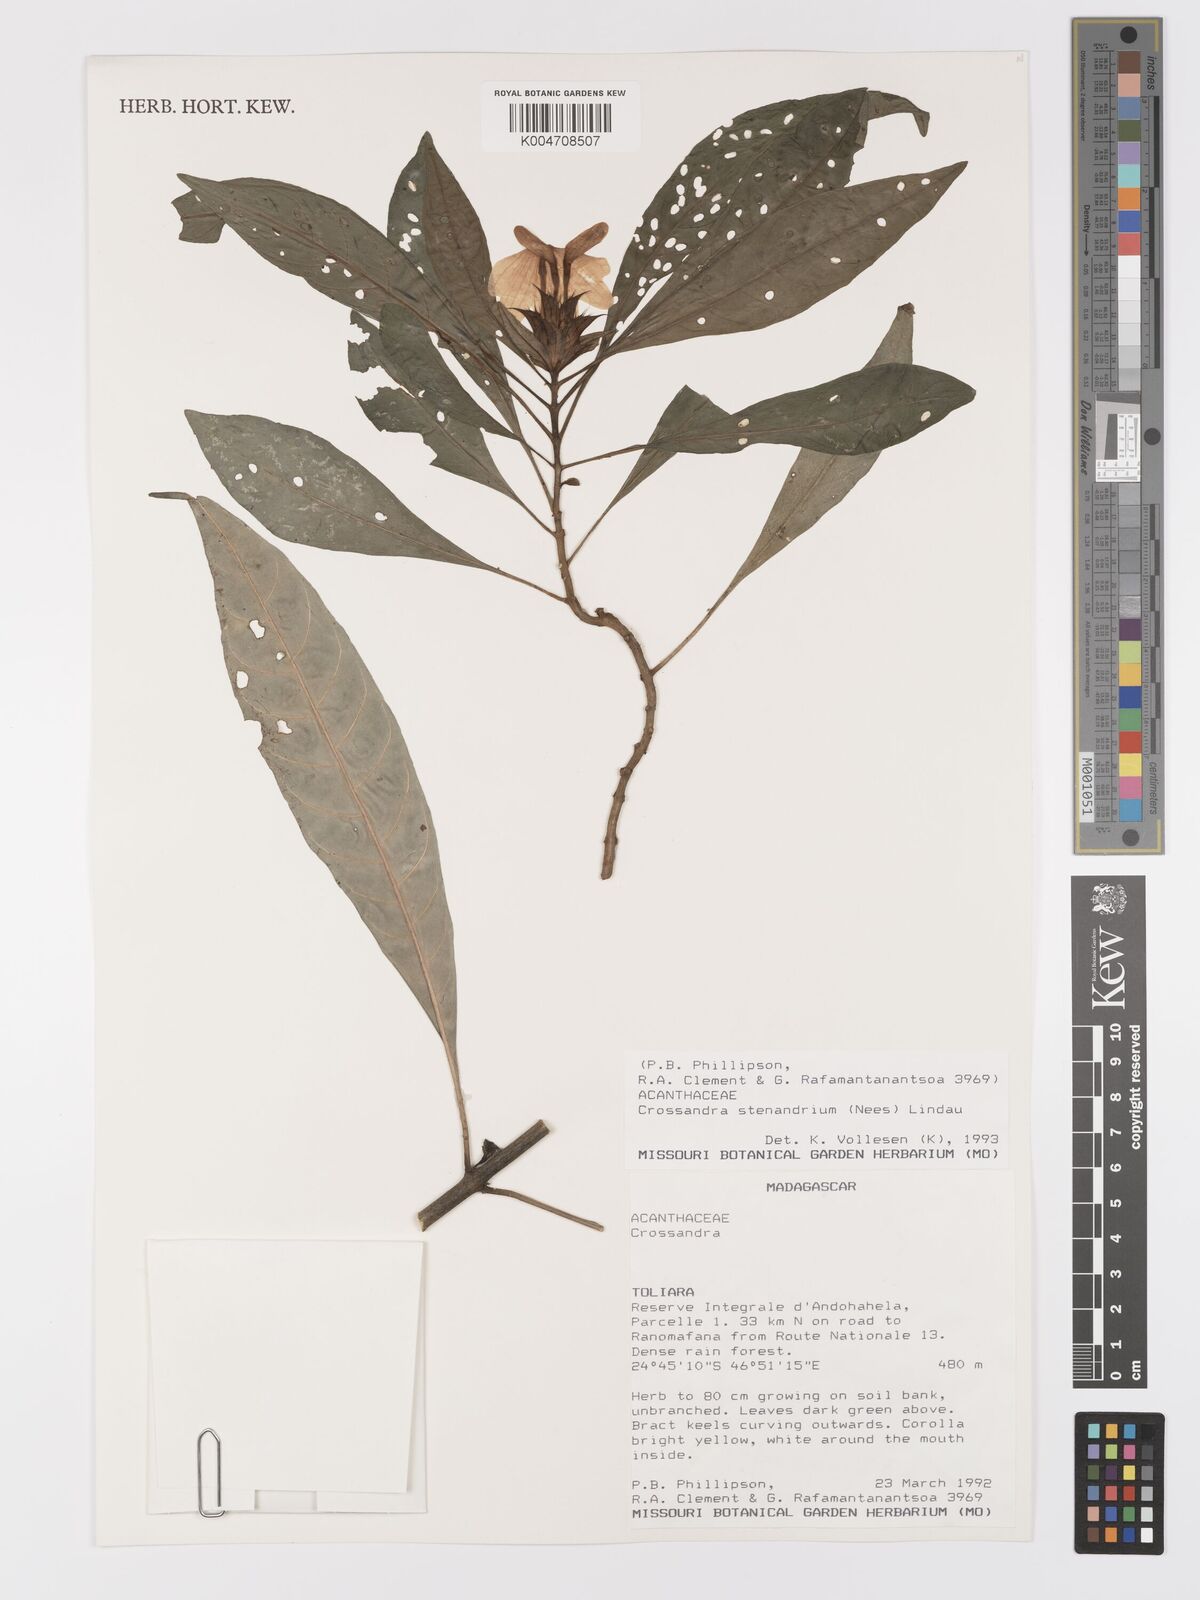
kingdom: Plantae
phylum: Tracheophyta
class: Magnoliopsida
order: Lamiales
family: Acanthaceae
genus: Crossandra
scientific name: Crossandra stenandrium
